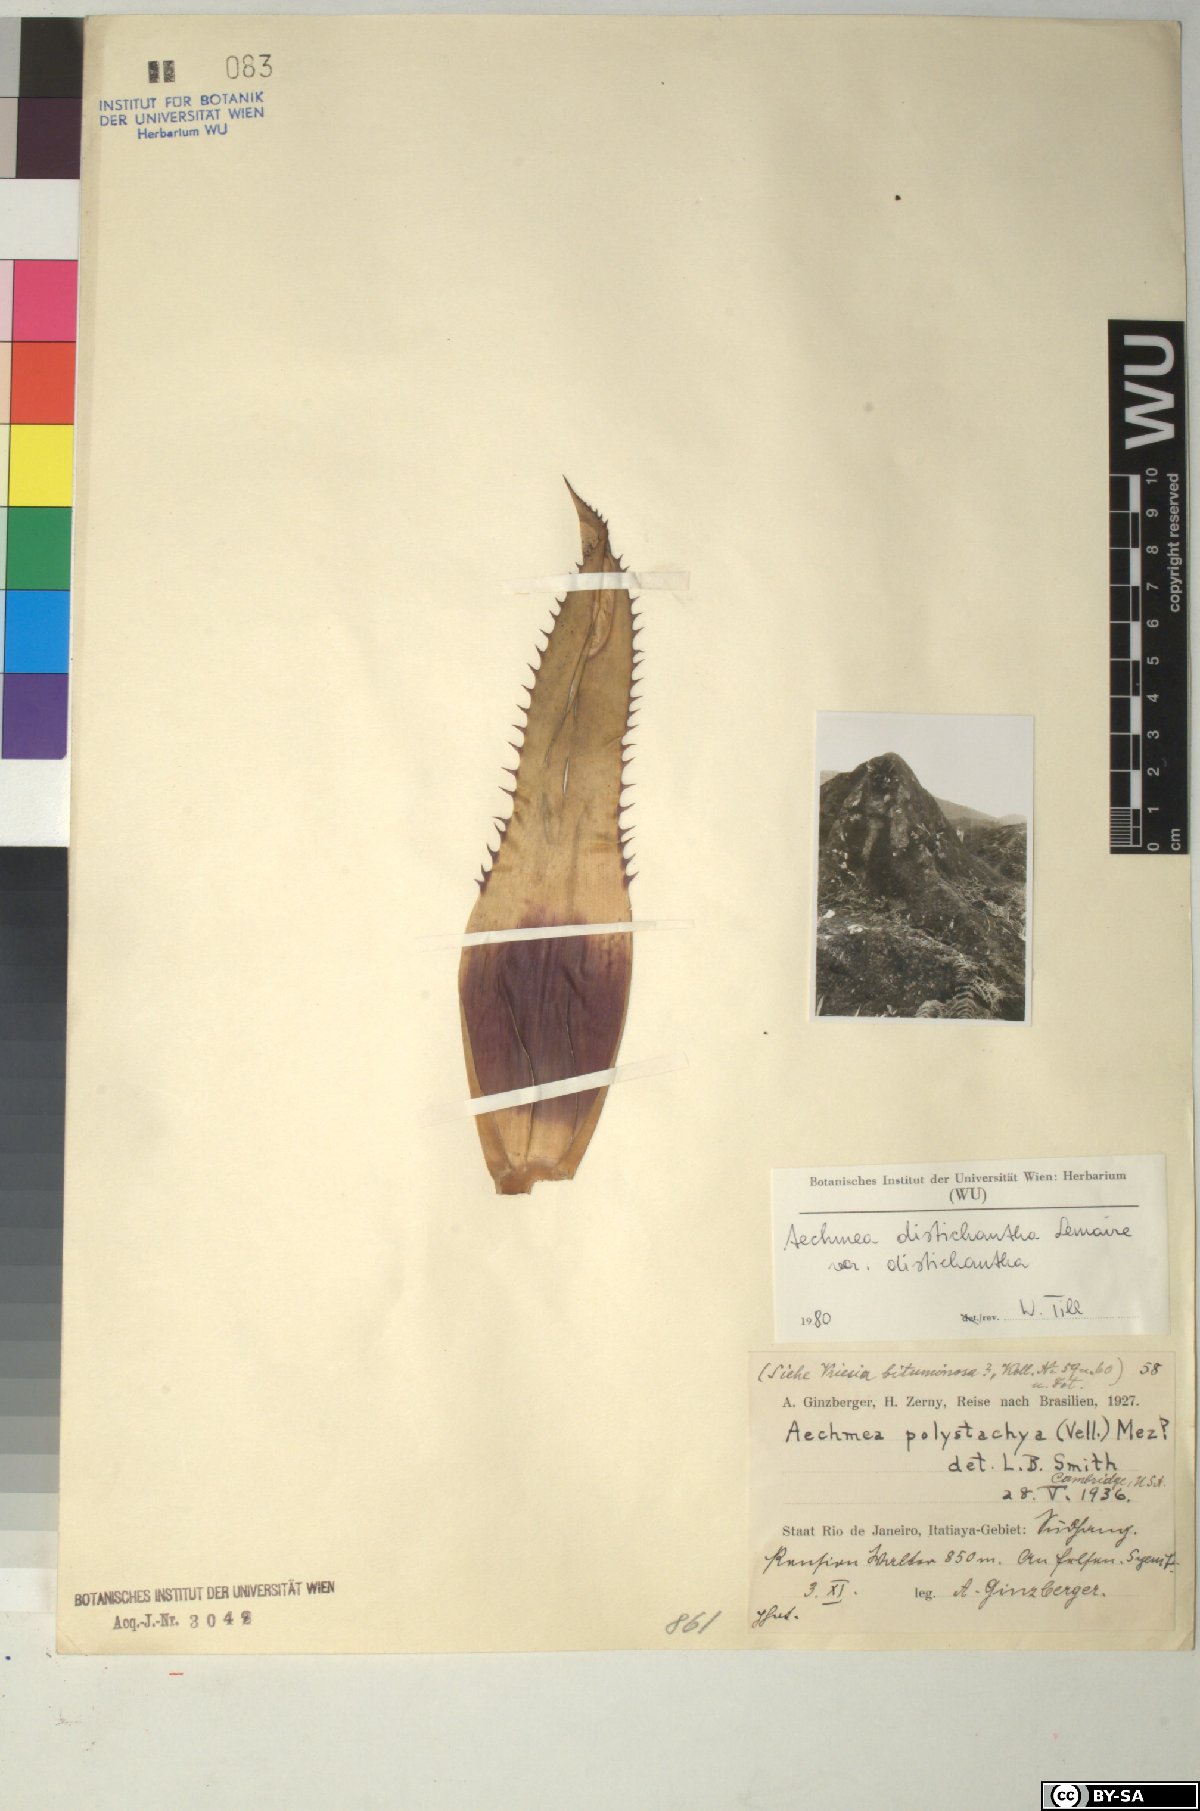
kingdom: Plantae
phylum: Tracheophyta
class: Liliopsida
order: Poales
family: Bromeliaceae
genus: Aechmea
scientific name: Aechmea distichantha
